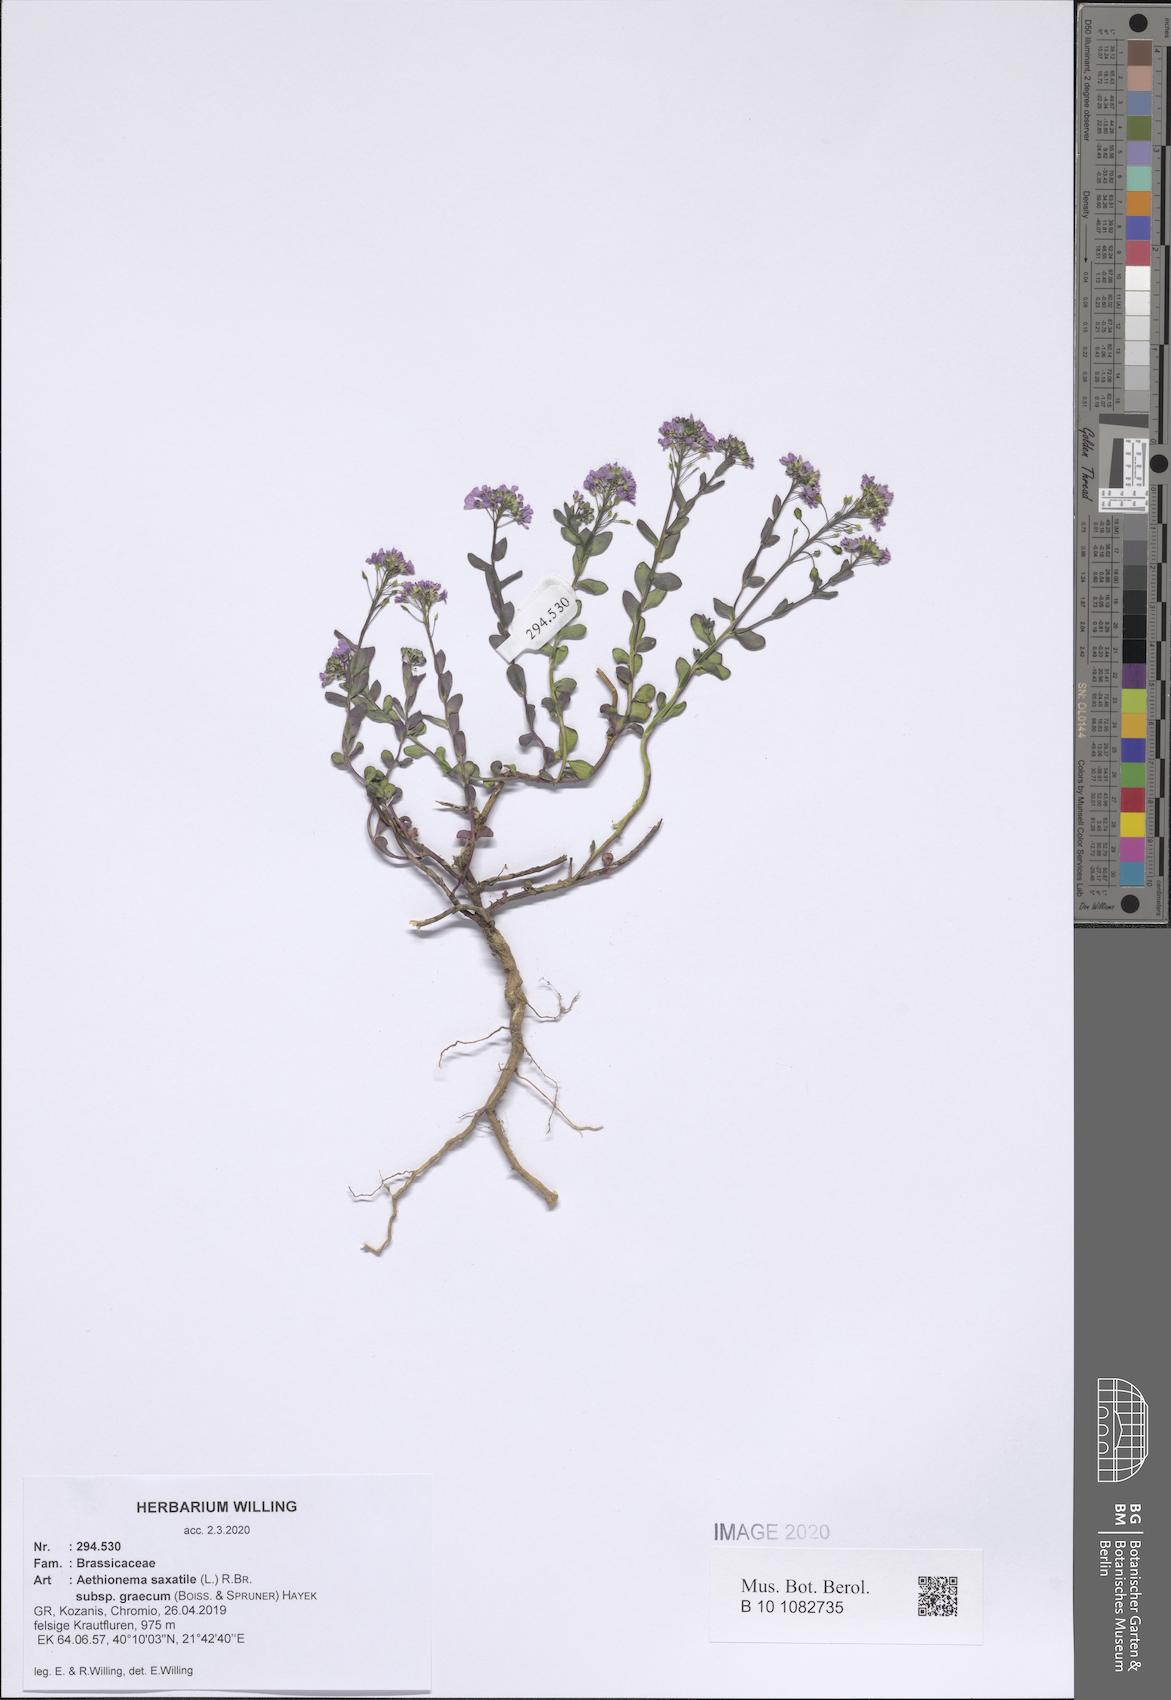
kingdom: Plantae
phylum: Tracheophyta
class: Magnoliopsida
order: Brassicales
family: Brassicaceae
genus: Aethionema
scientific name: Aethionema saxatile
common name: Burnt candytuft
